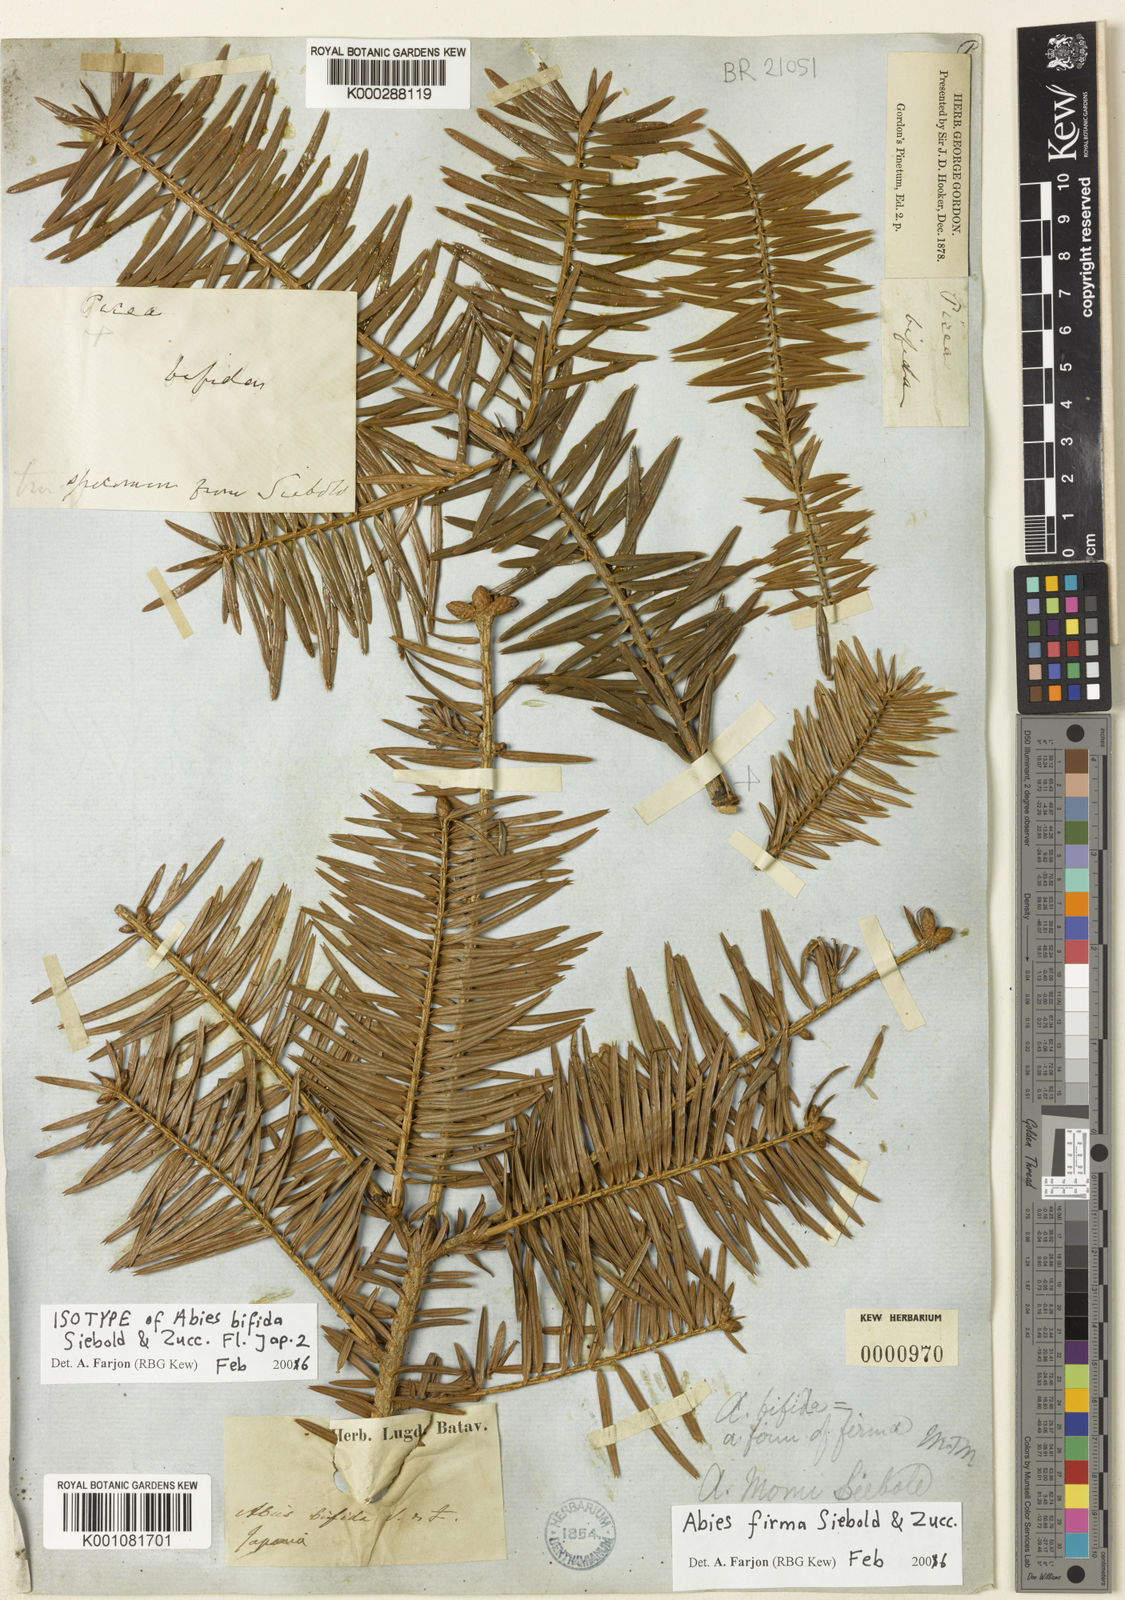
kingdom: Plantae
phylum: Tracheophyta
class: Pinopsida
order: Pinales
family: Pinaceae
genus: Abies
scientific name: Abies firma
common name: Momi fir
